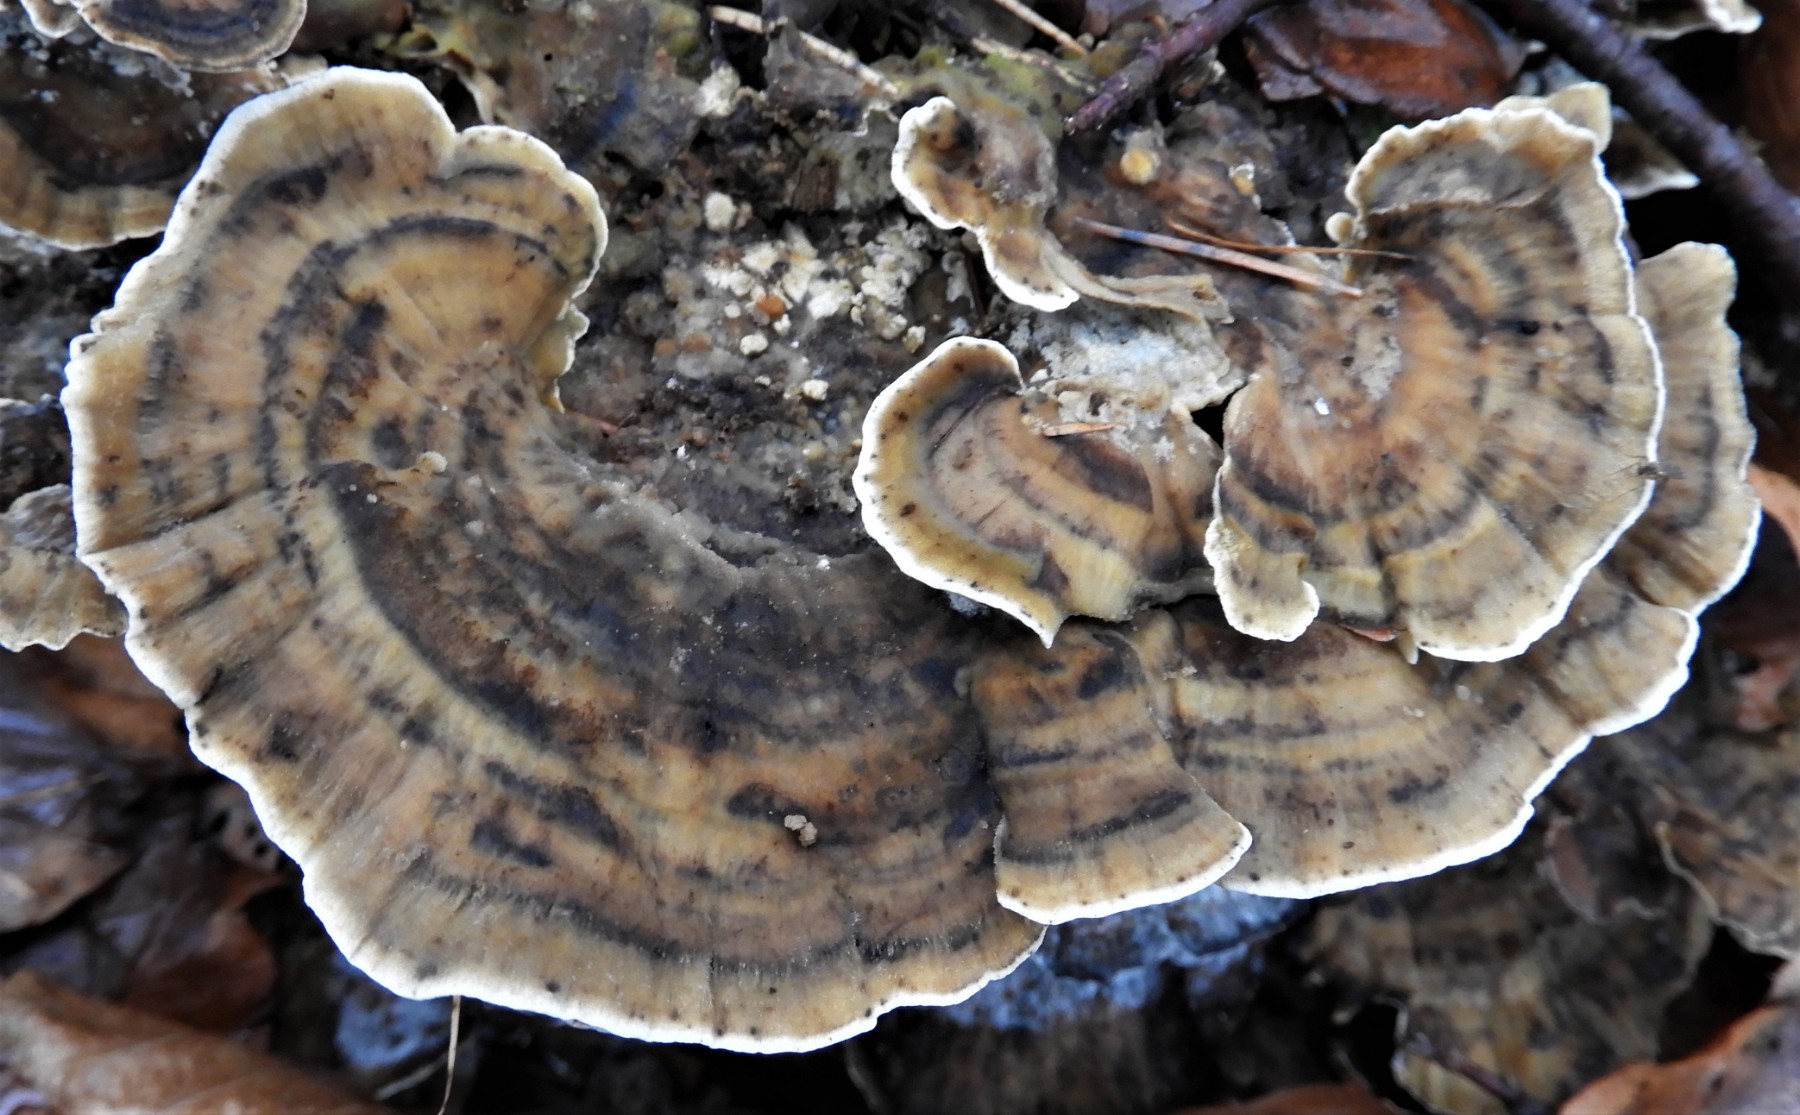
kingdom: Fungi
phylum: Basidiomycota
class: Agaricomycetes
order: Polyporales
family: Phanerochaetaceae
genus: Bjerkandera
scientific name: Bjerkandera adusta
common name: sveden sodporesvamp
